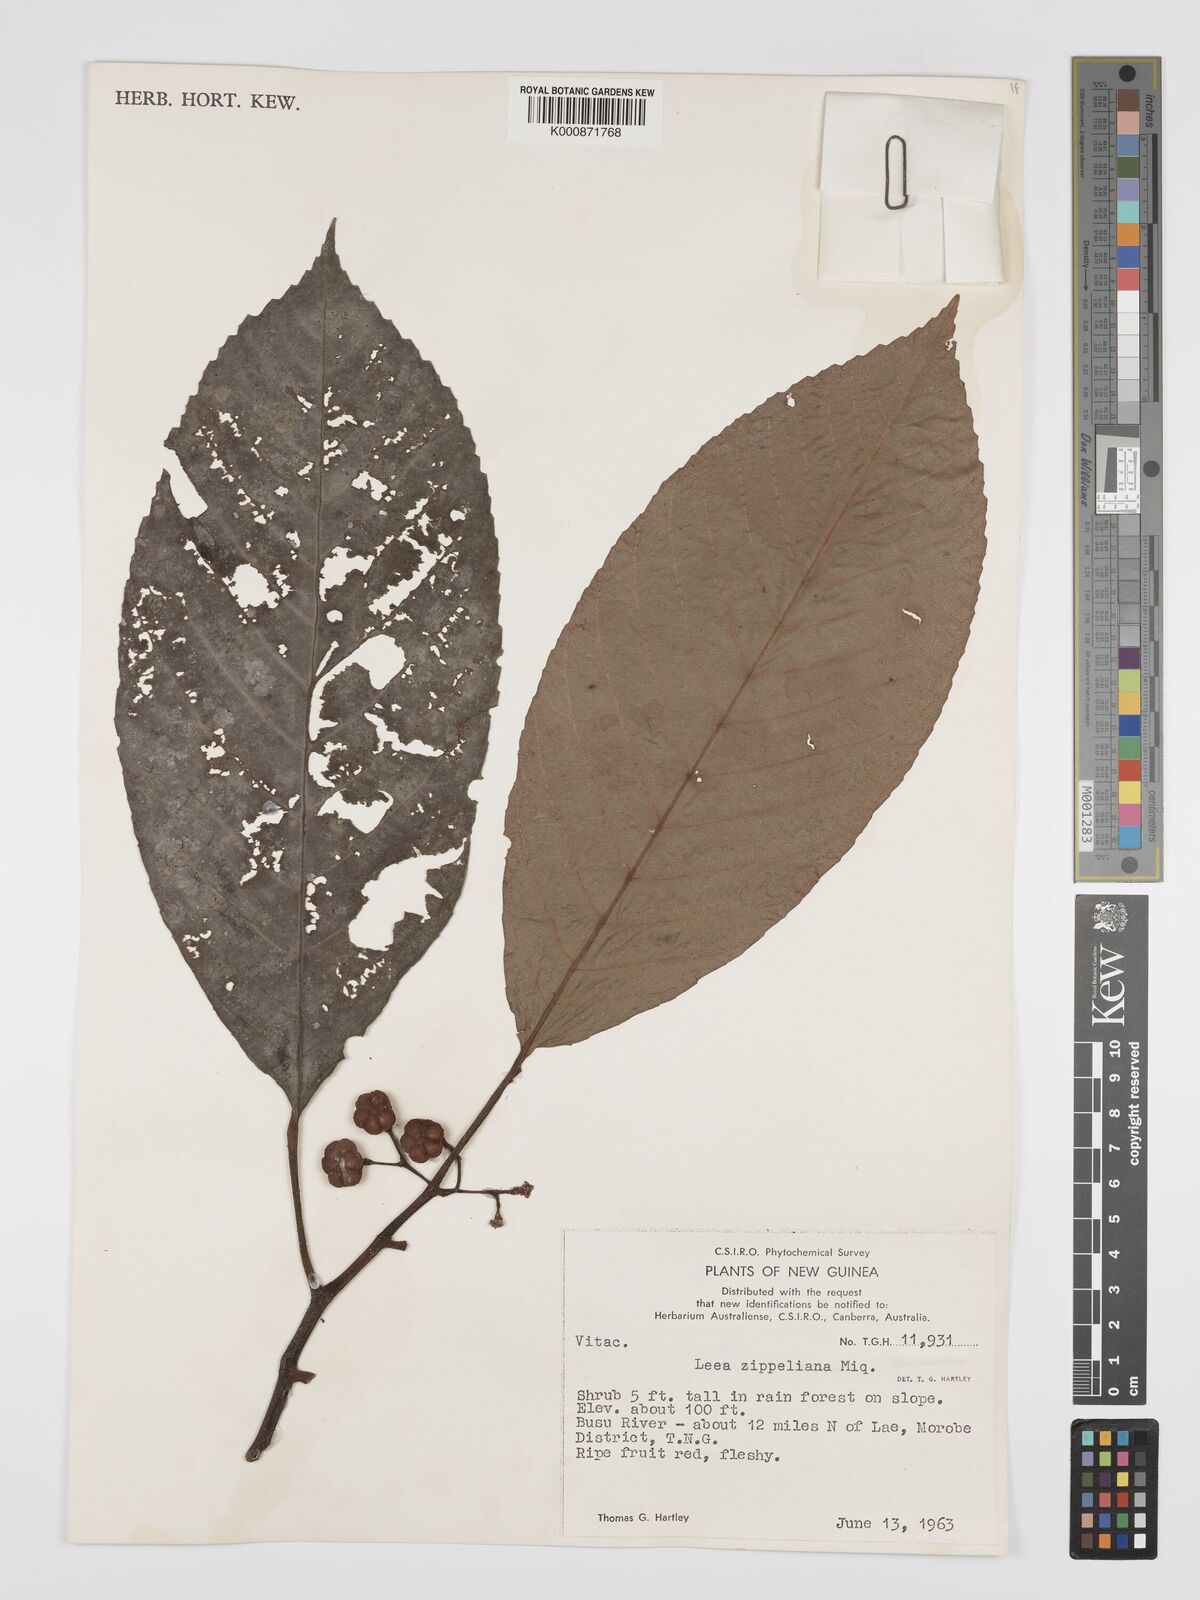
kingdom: Plantae
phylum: Tracheophyta
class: Magnoliopsida
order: Vitales
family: Vitaceae
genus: Leea
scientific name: Leea zippeliana
